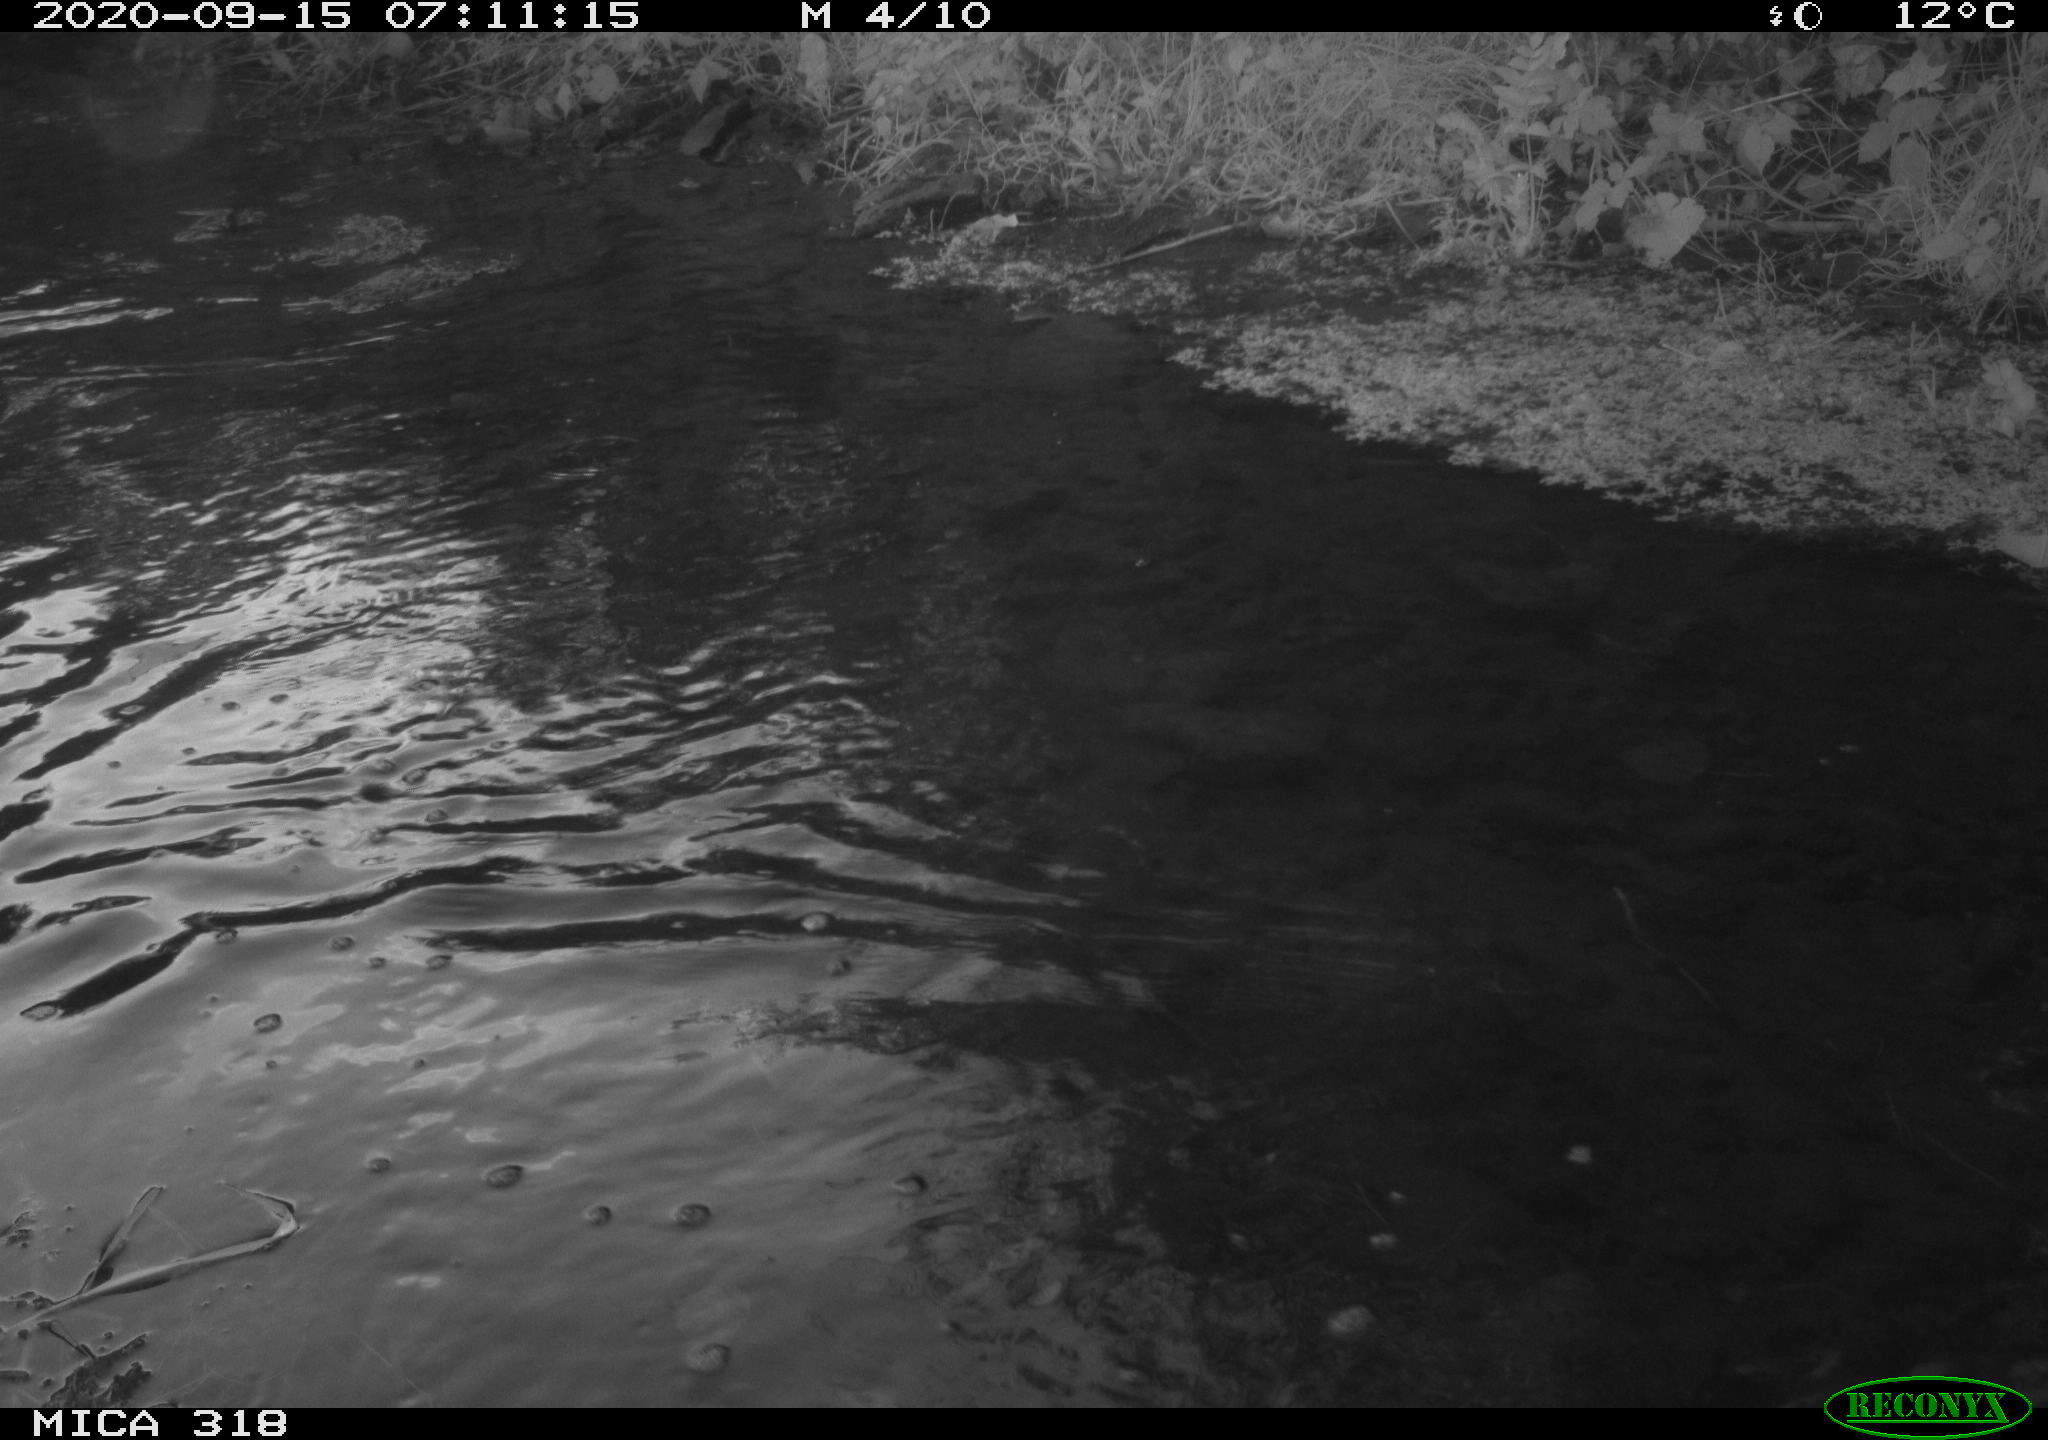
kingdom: Animalia
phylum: Chordata
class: Aves
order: Gruiformes
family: Rallidae
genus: Gallinula
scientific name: Gallinula chloropus
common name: Common moorhen
